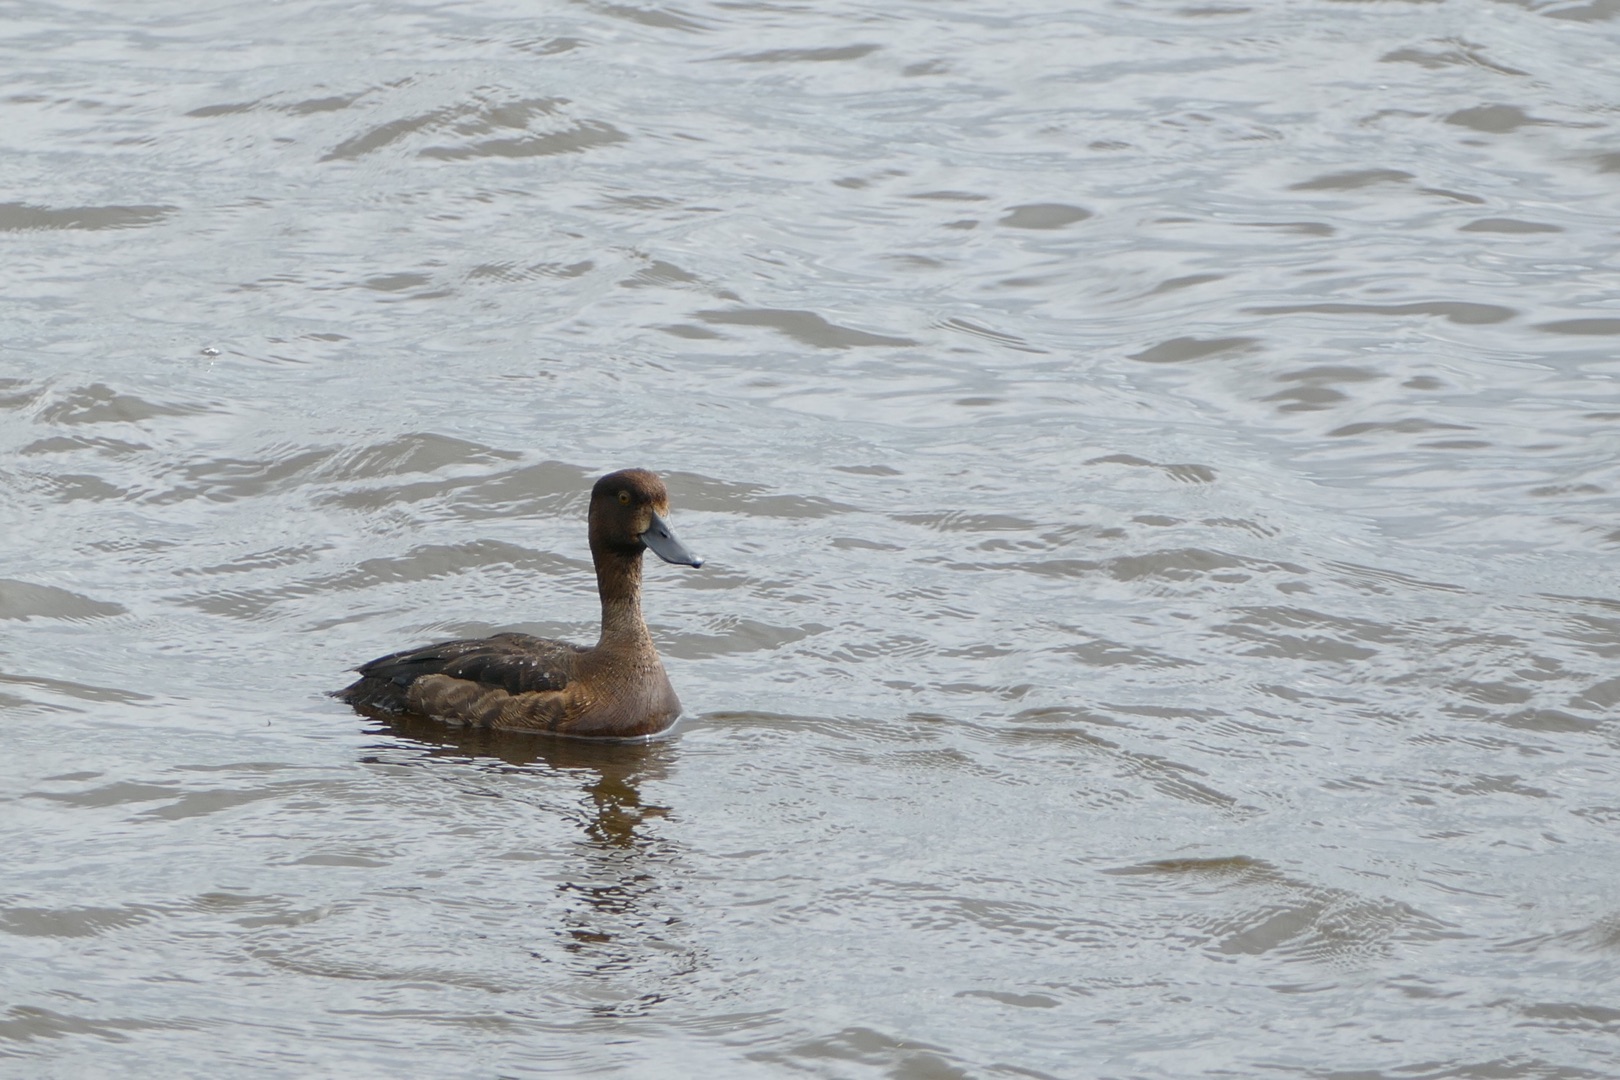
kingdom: Animalia
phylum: Chordata
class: Aves
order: Anseriformes
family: Anatidae
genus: Aythya
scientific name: Aythya fuligula
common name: Troldand
